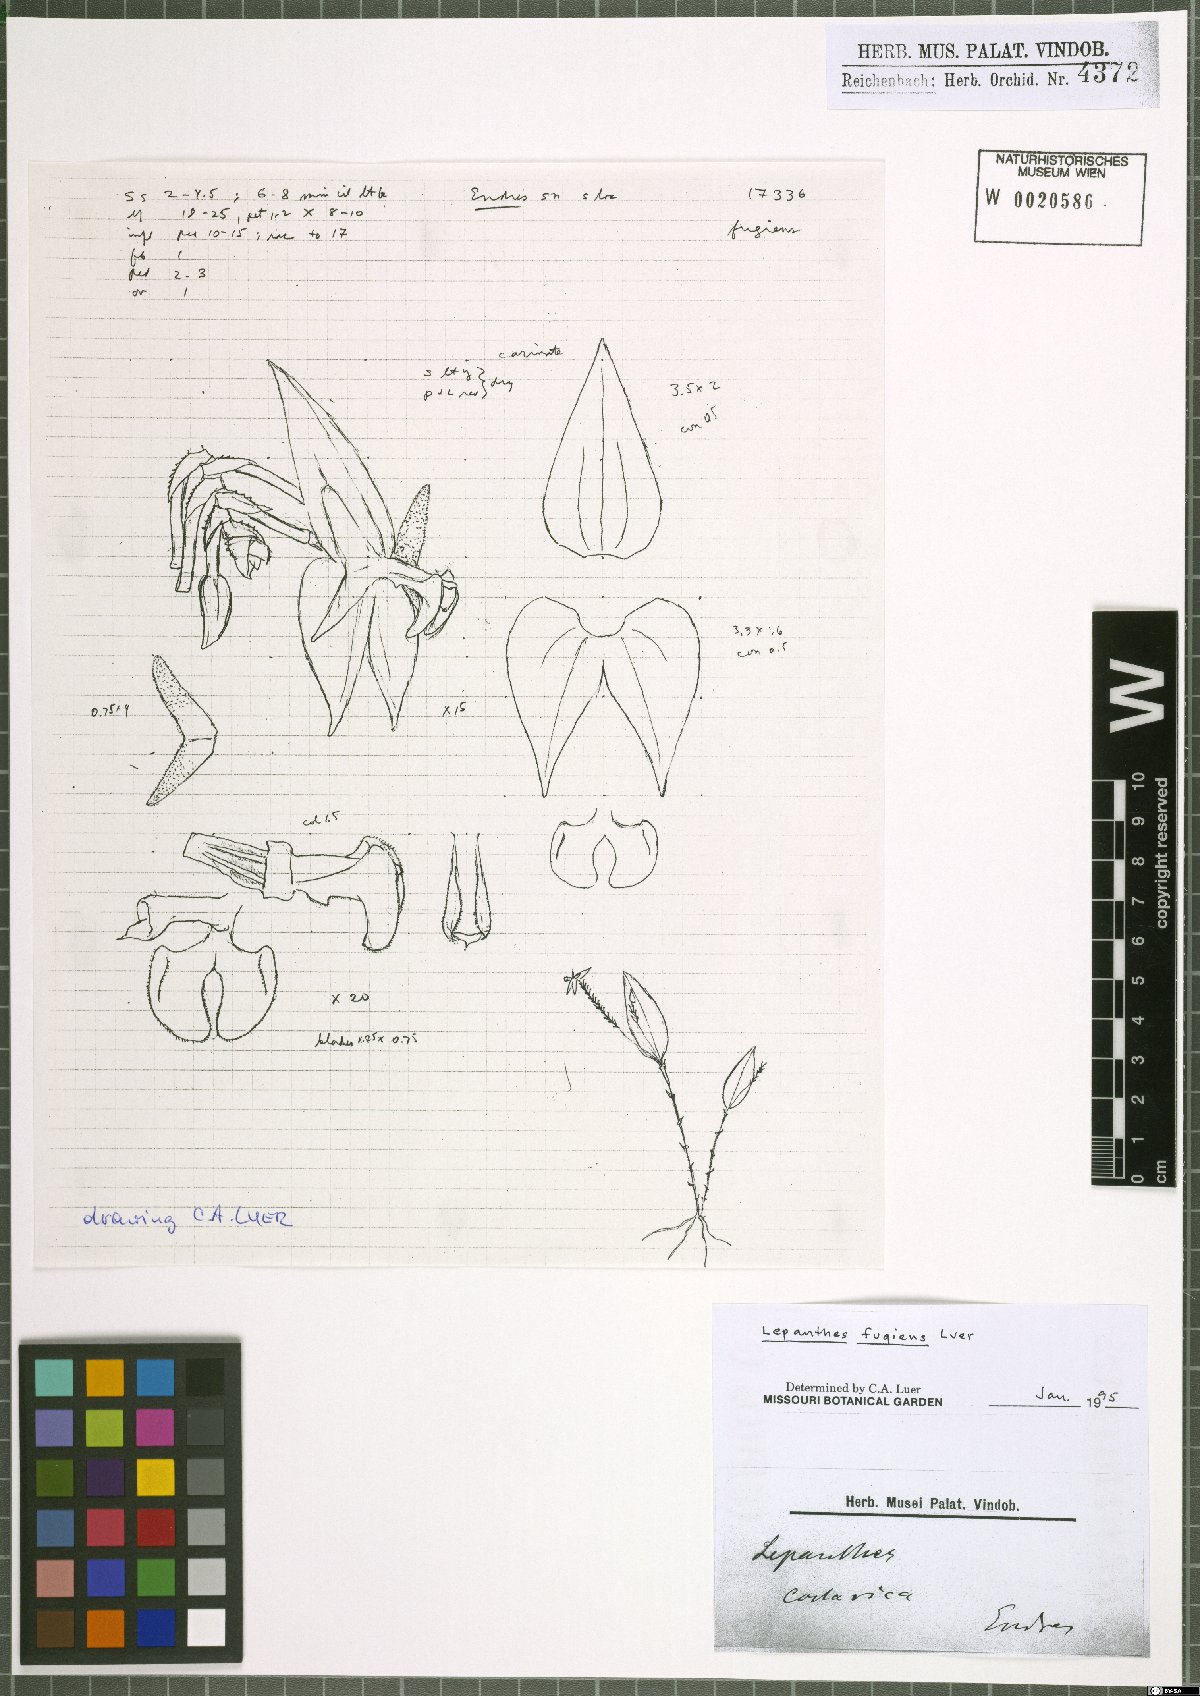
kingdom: Plantae
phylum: Tracheophyta
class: Liliopsida
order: Asparagales
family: Orchidaceae
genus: Lepanthes
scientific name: Lepanthes fugiens
